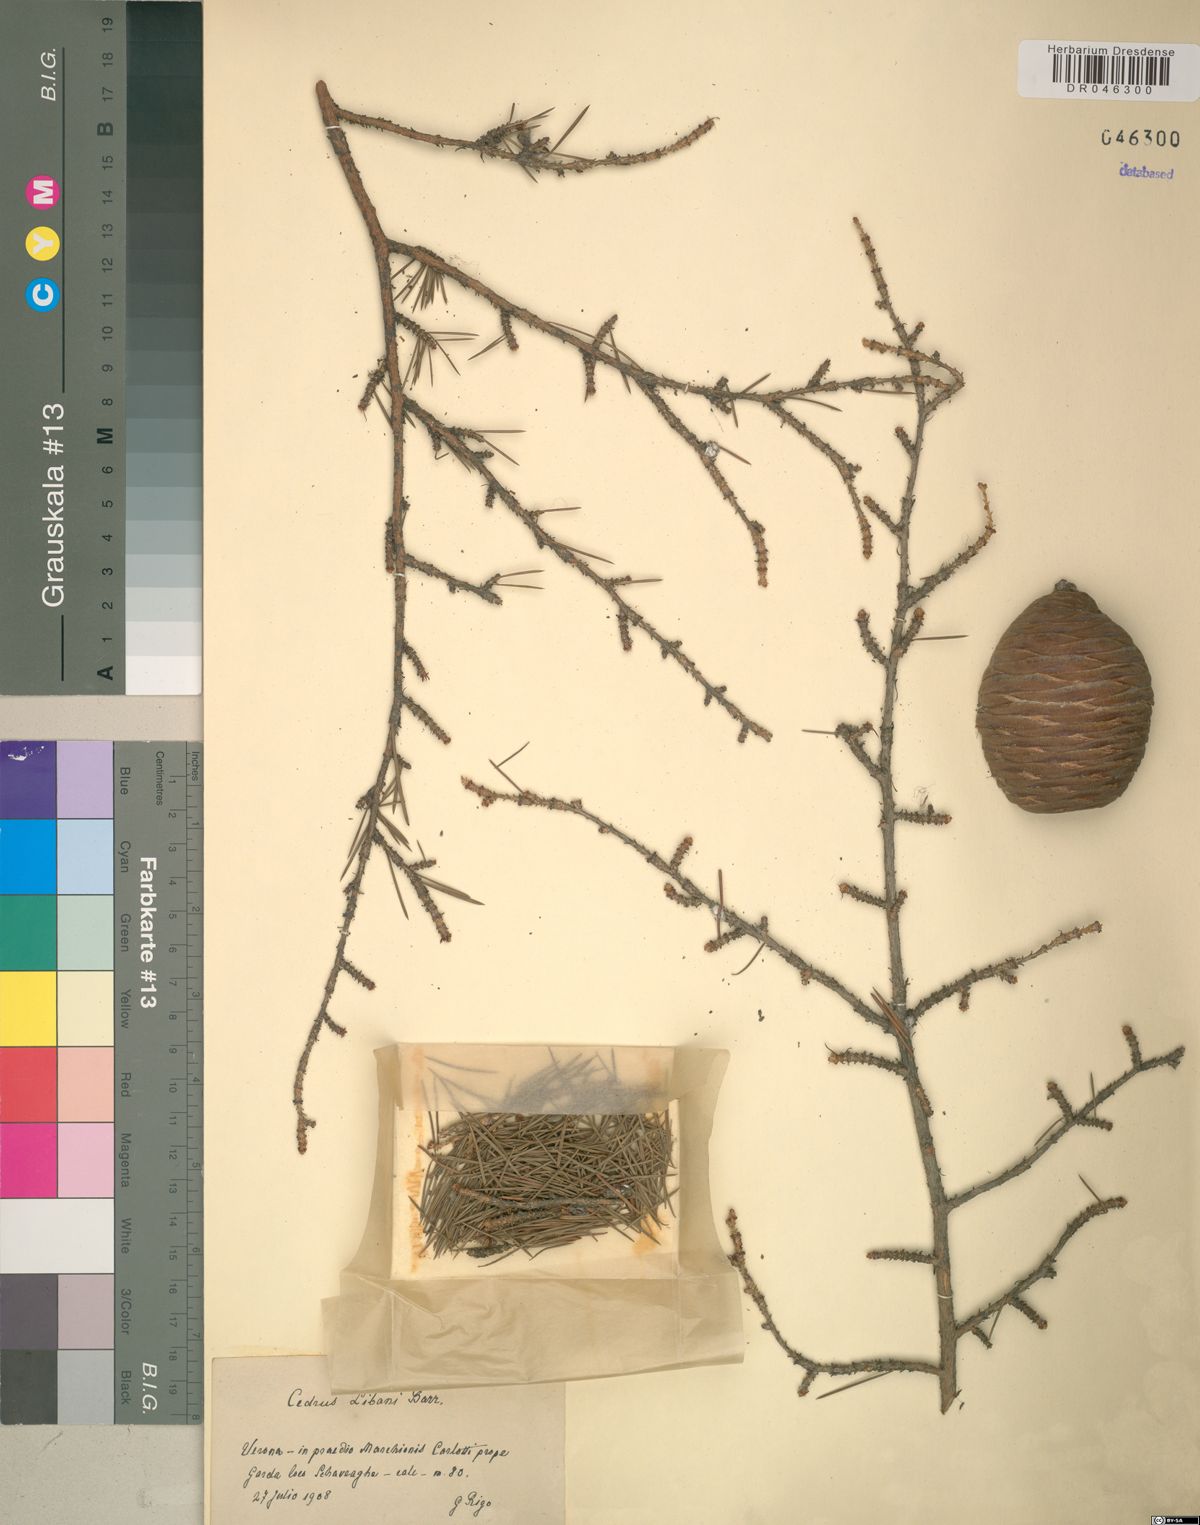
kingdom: Plantae
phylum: Tracheophyta
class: Pinopsida
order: Pinales
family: Pinaceae
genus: Cedrus
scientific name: Cedrus libani
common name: Cedar-of-lebanon
